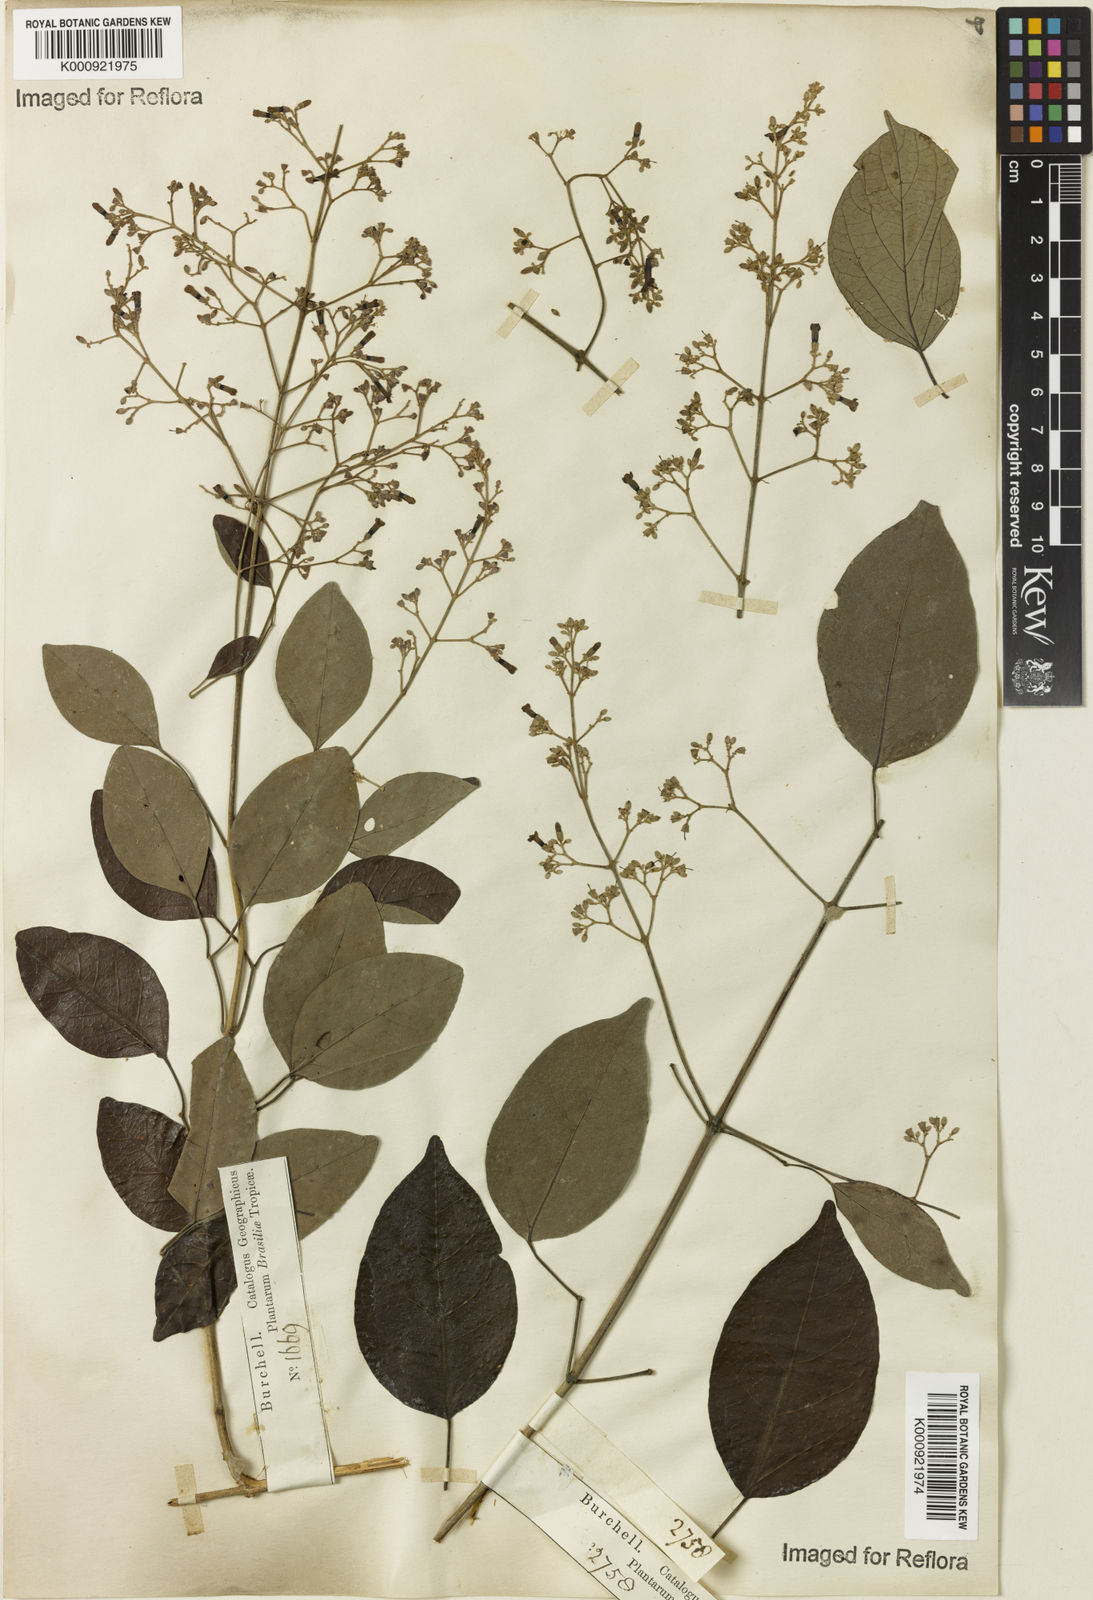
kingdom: Plantae
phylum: Tracheophyta
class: Magnoliopsida
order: Lamiales
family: Bignoniaceae
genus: Fridericia
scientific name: Fridericia rego
